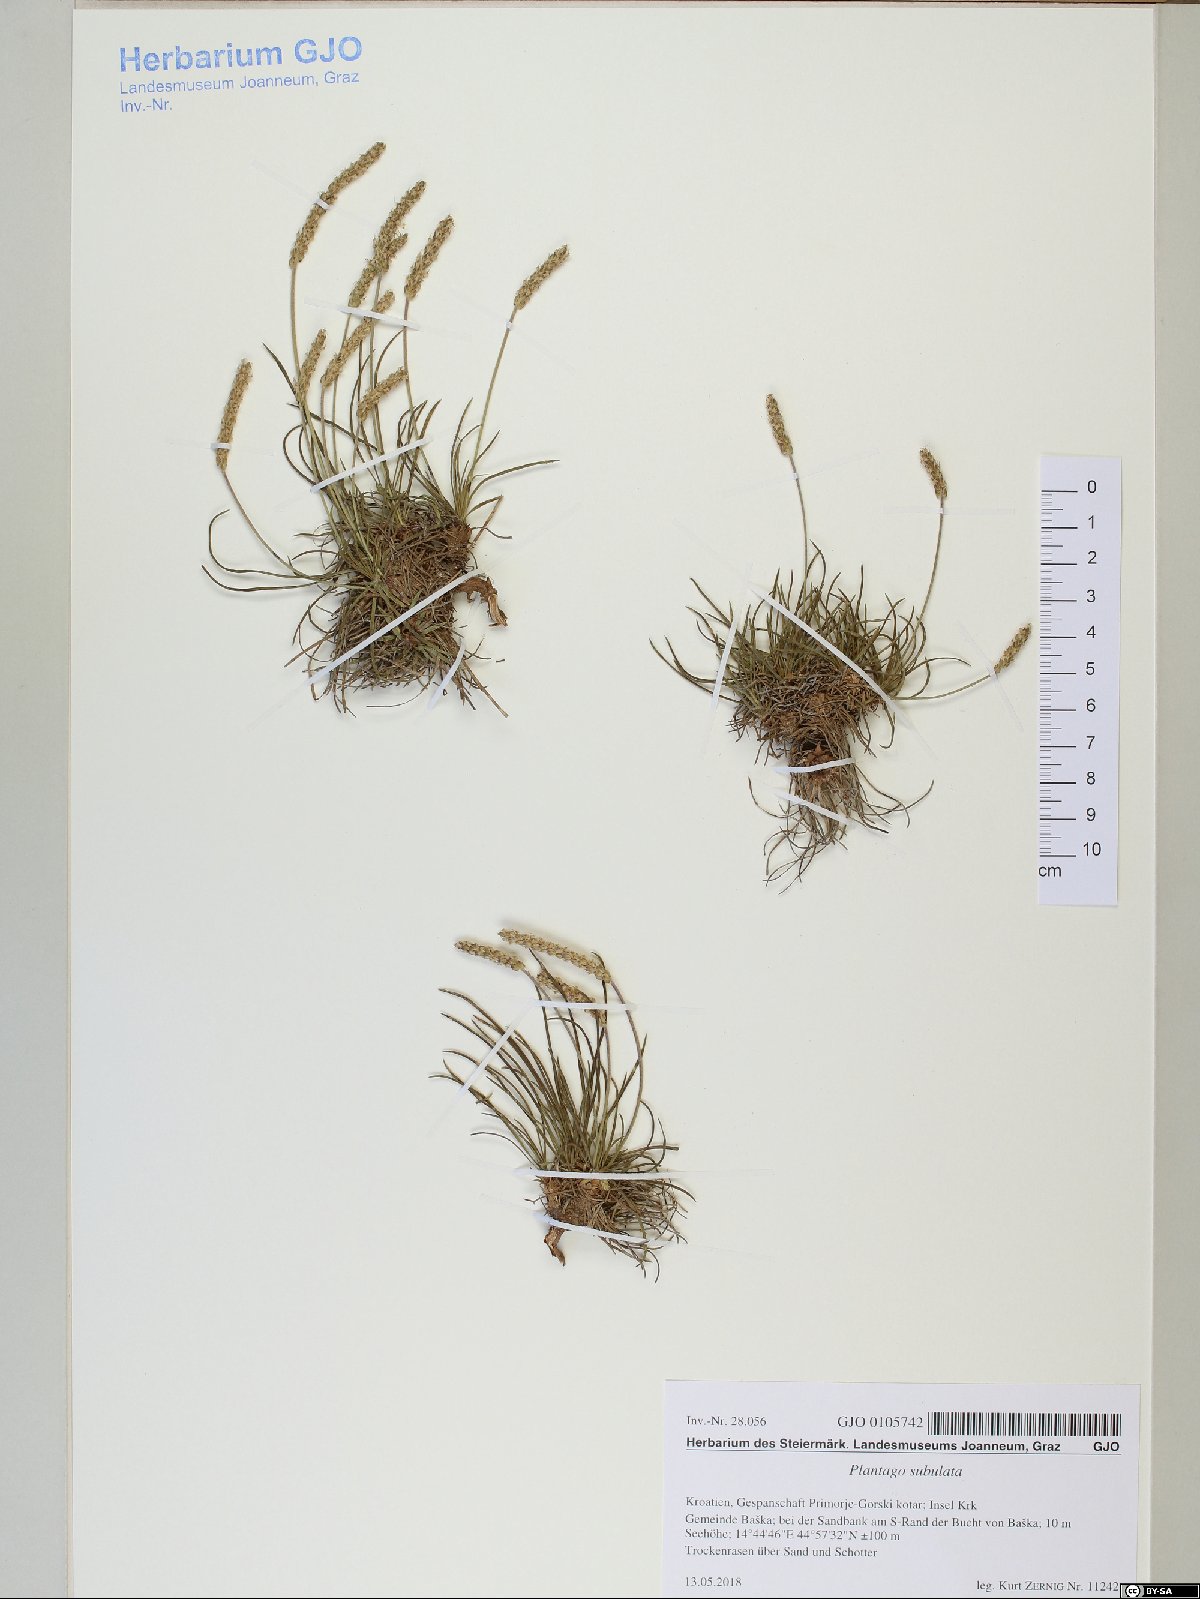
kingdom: Plantae
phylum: Tracheophyta
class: Magnoliopsida
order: Lamiales
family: Plantaginaceae
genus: Plantago
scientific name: Plantago subulata
